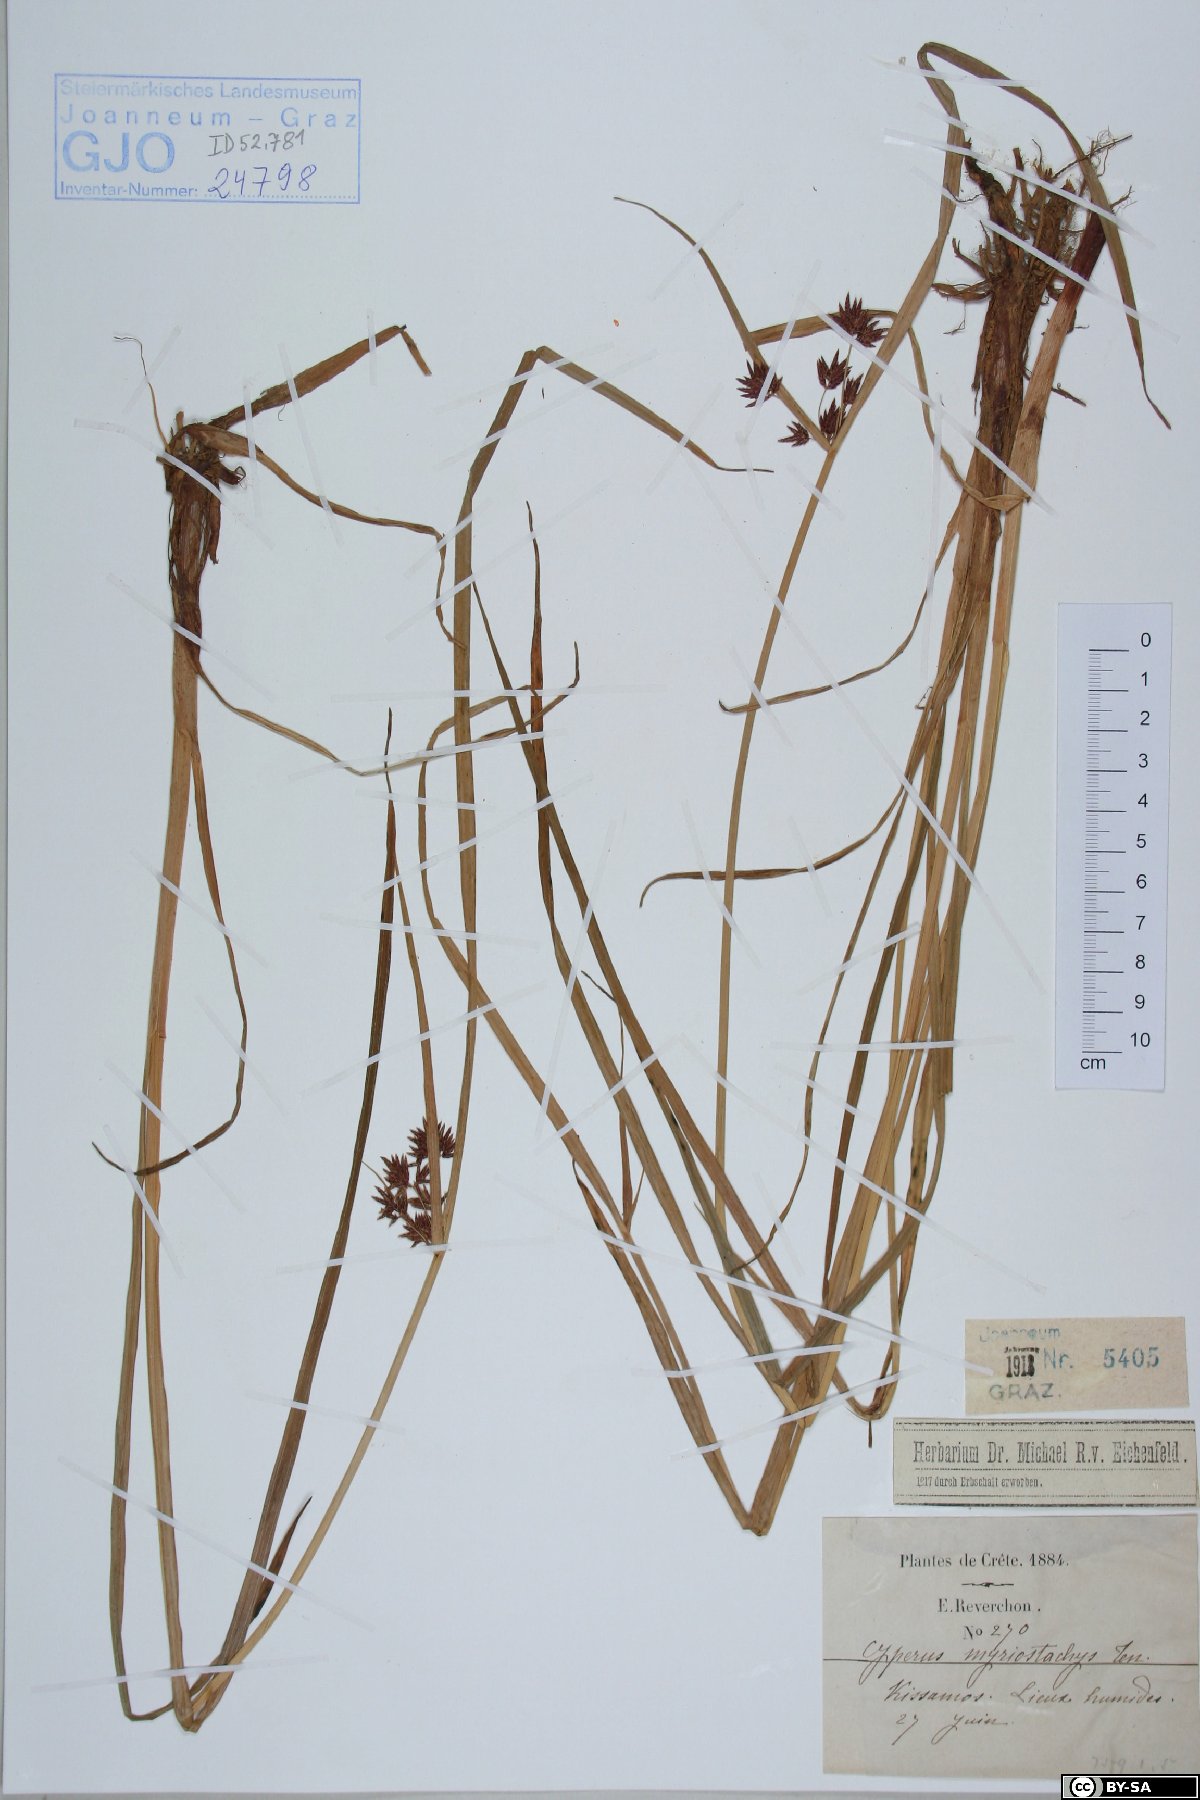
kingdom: Plantae
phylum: Tracheophyta
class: Liliopsida
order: Poales
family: Cyperaceae
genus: Cyperus
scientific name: Cyperus longus
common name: Galingale
